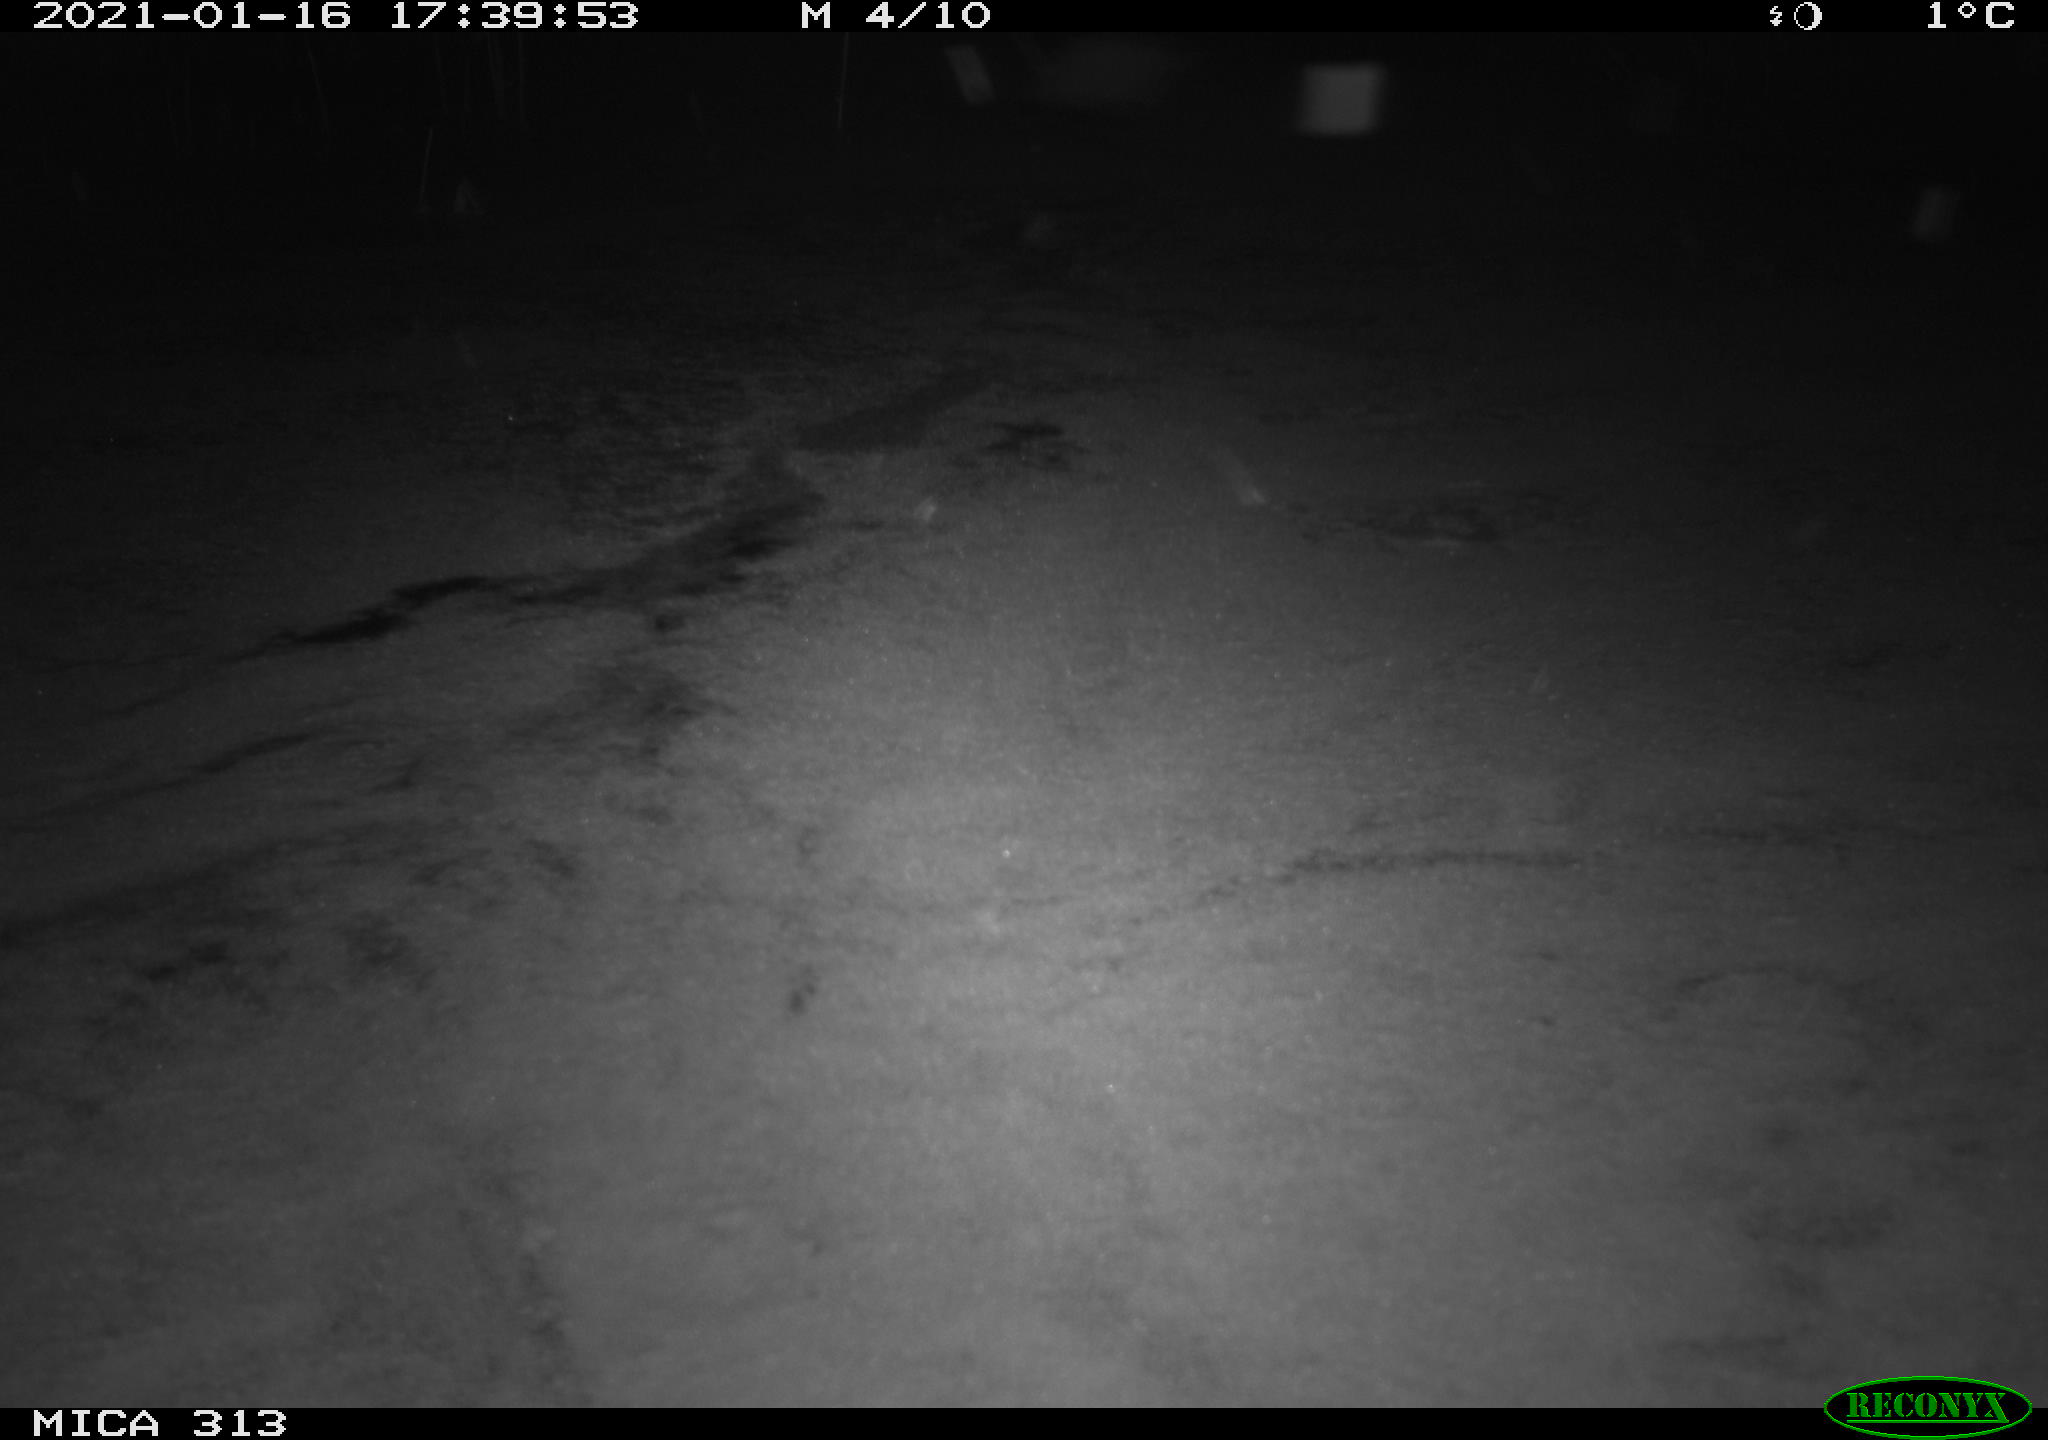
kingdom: Animalia
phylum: Chordata
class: Aves
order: Gruiformes
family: Rallidae
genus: Gallinula
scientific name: Gallinula chloropus
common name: Common moorhen
